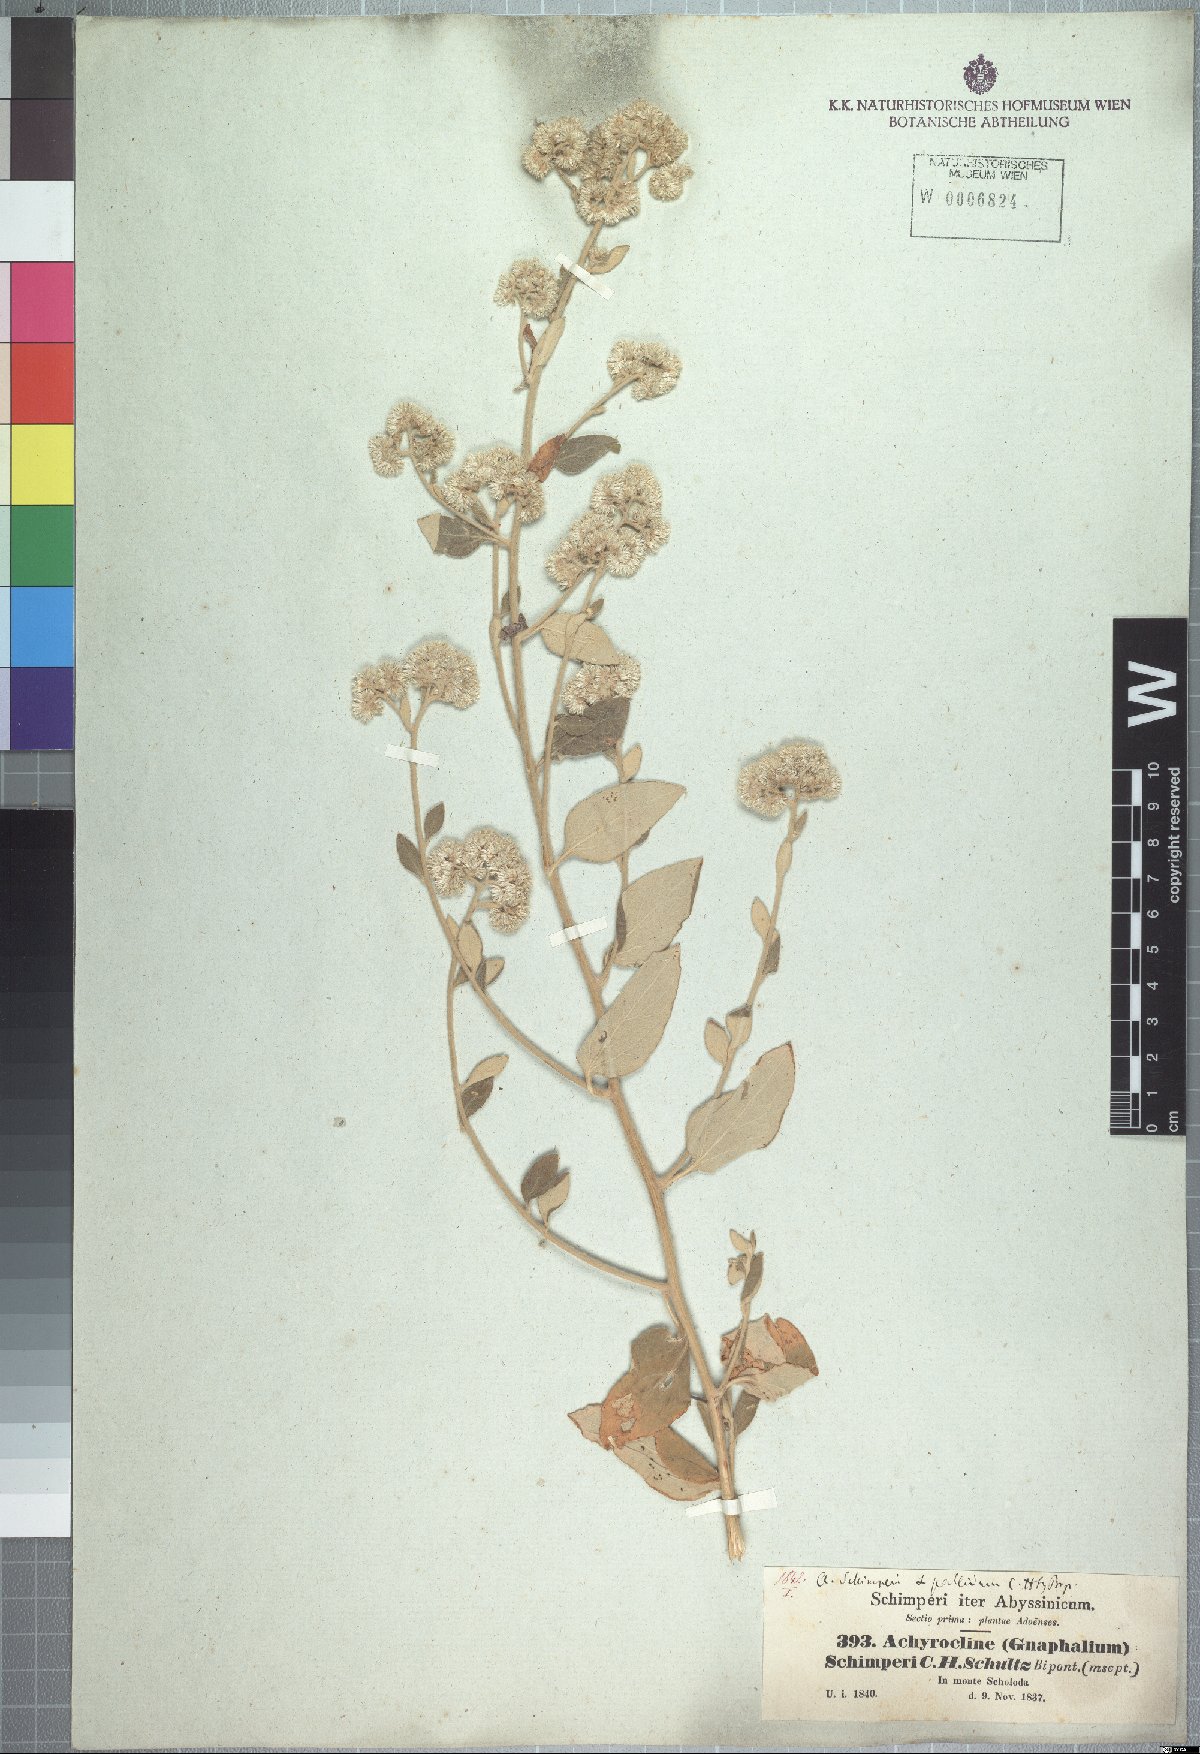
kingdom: Plantae
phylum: Tracheophyta
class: Magnoliopsida
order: Asterales
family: Asteraceae
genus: Helichrysum
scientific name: Helichrysum schimperi
